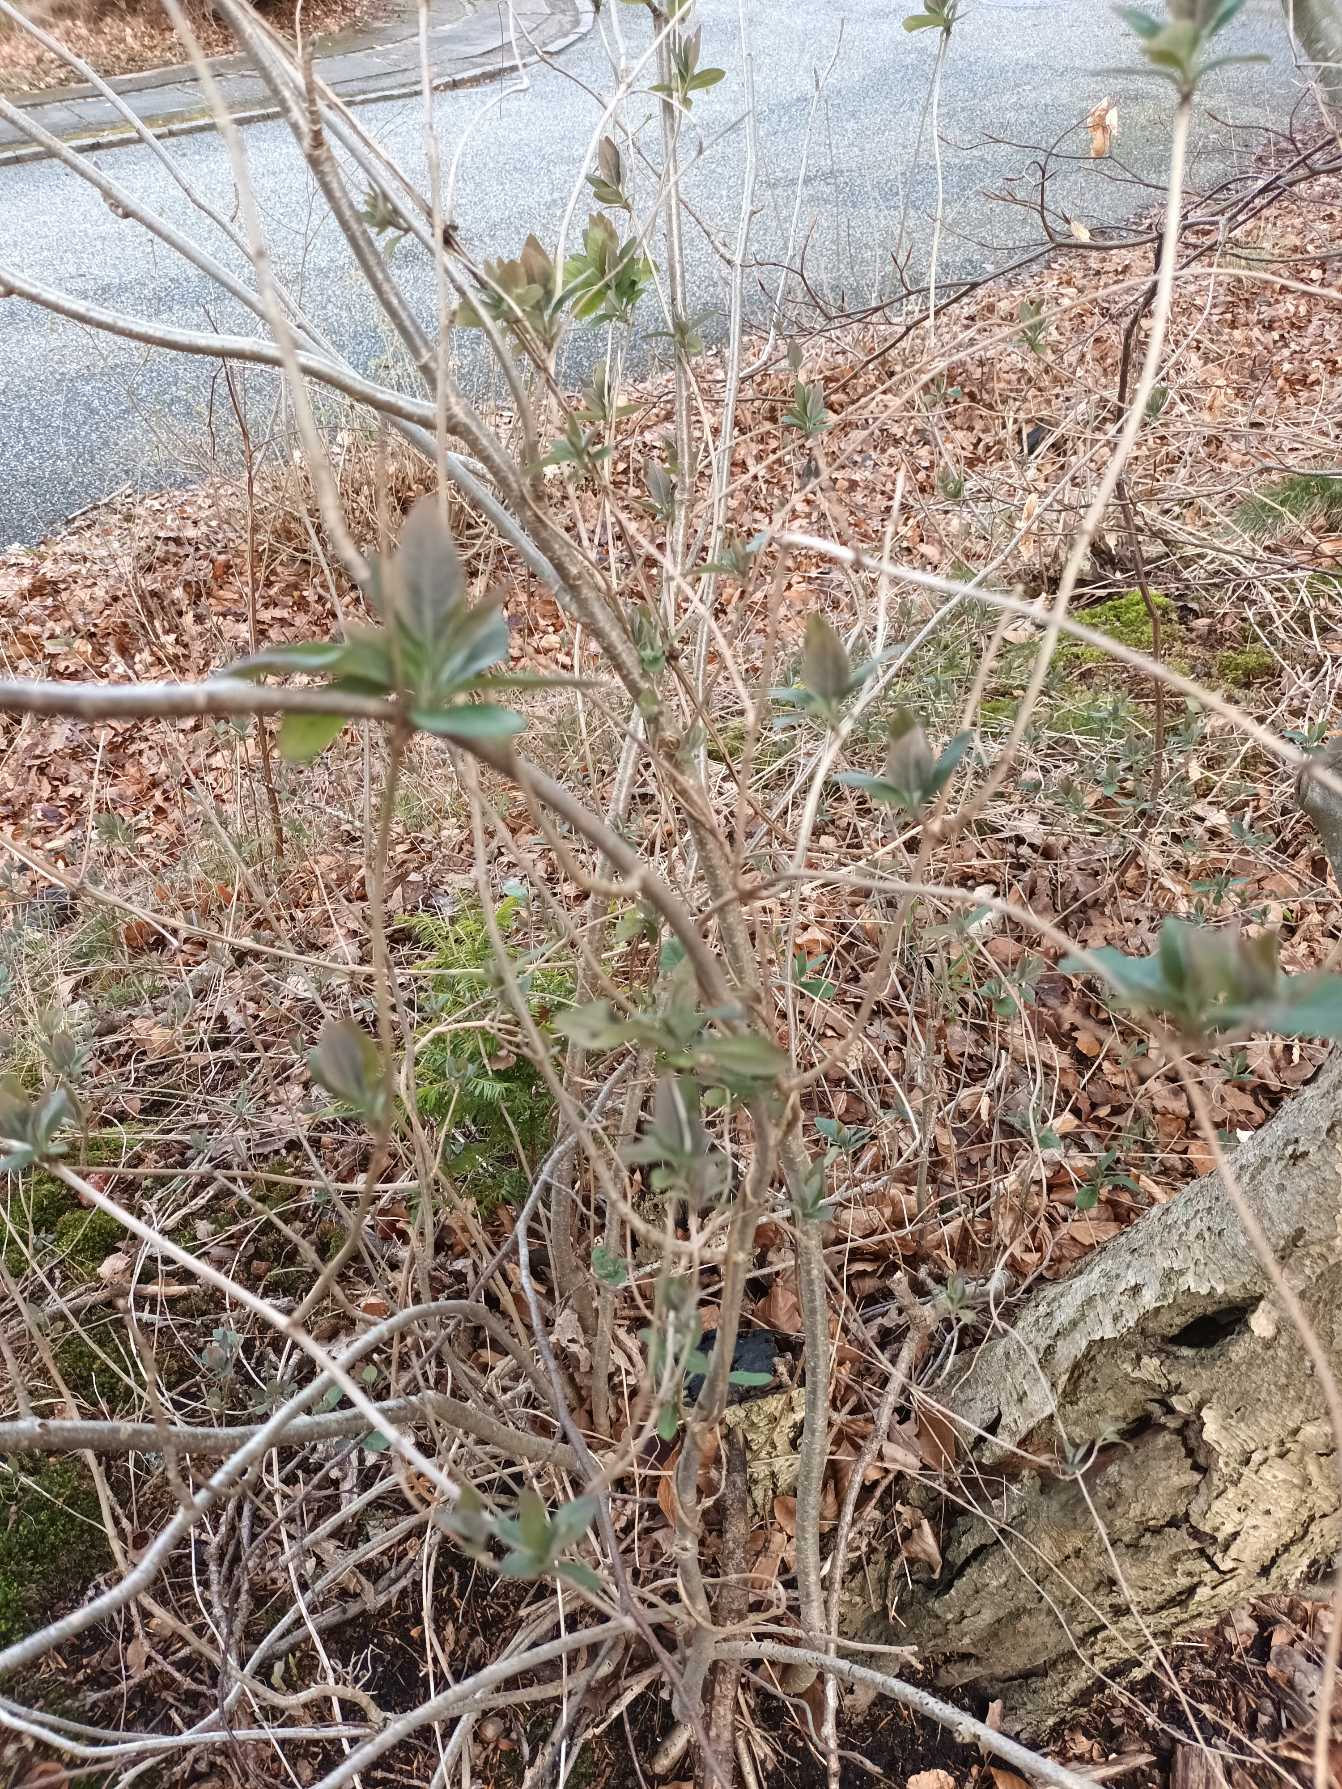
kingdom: Plantae
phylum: Tracheophyta
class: Magnoliopsida
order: Dipsacales
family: Caprifoliaceae
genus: Lonicera
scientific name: Lonicera periclymenum
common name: Almindelig gedeblad
